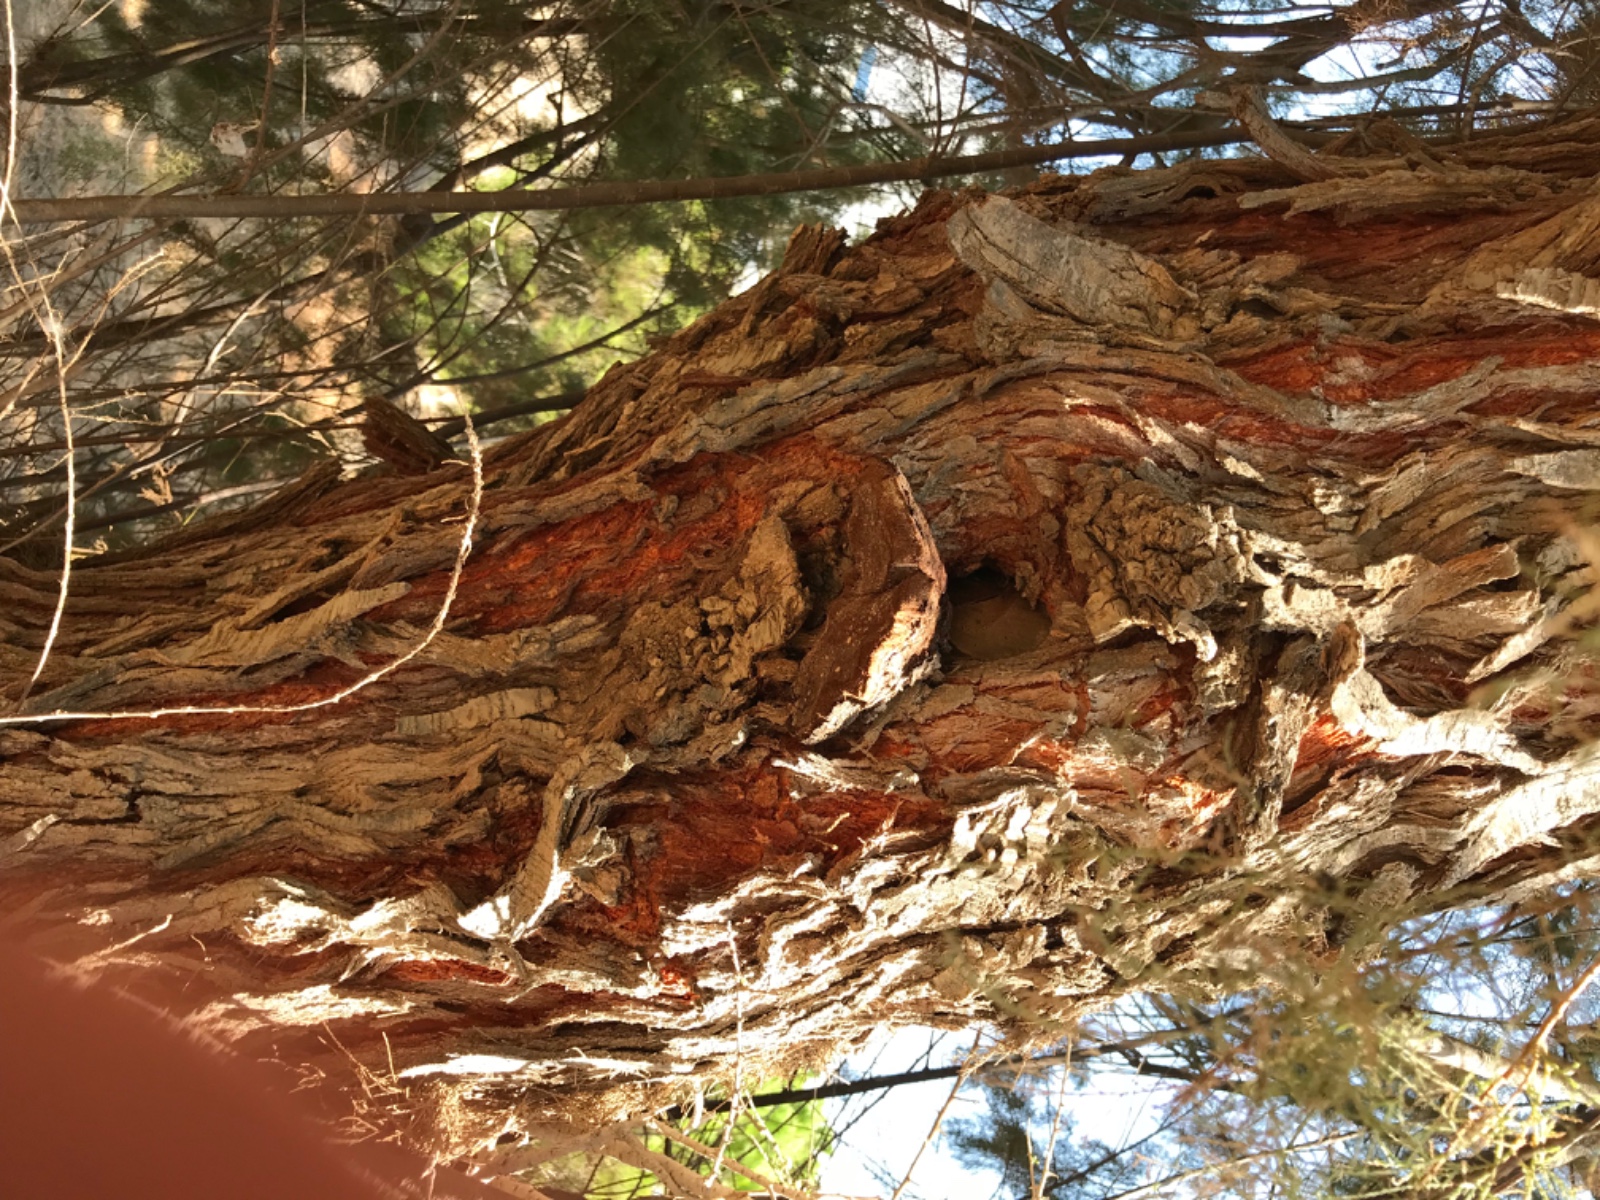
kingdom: Fungi
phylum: Basidiomycota
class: Agaricomycetes
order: Hymenochaetales
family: Hymenochaetaceae
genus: Inocutis
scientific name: Inocutis tamaricis
